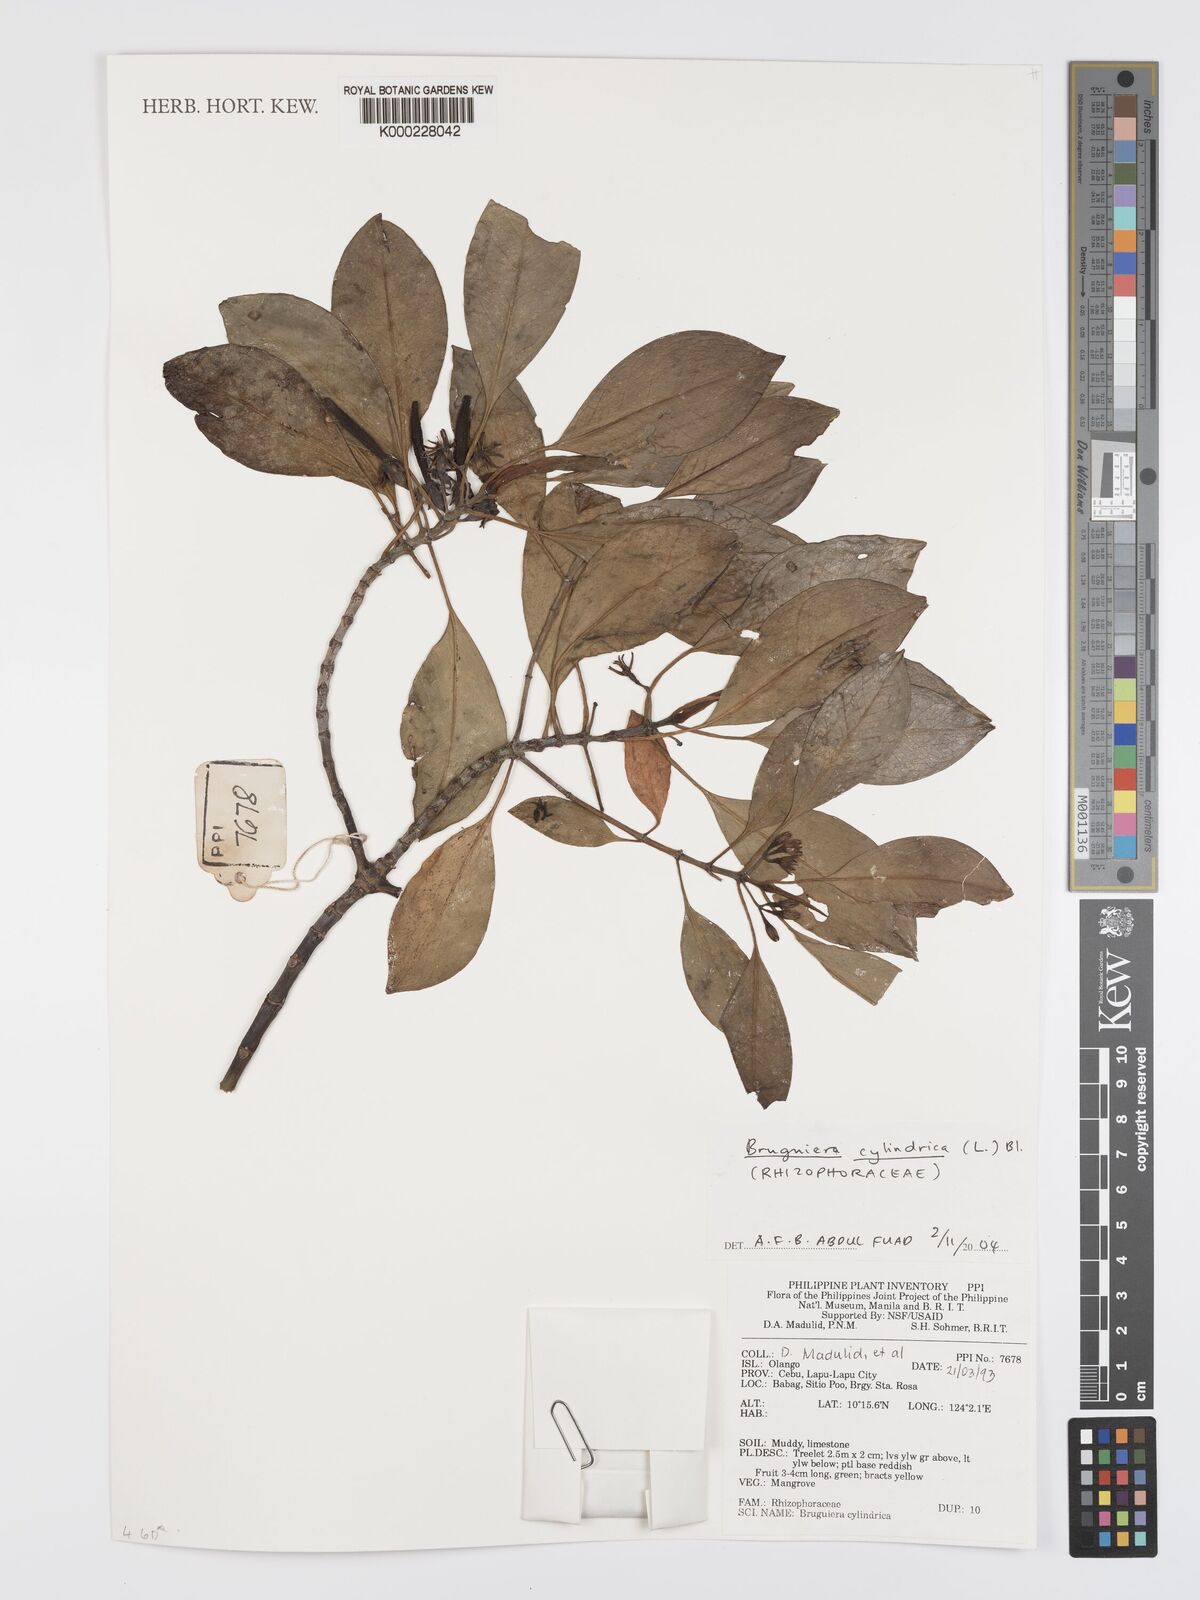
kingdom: Plantae
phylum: Tracheophyta
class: Magnoliopsida
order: Malpighiales
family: Rhizophoraceae
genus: Bruguiera
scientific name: Bruguiera cylindrica
